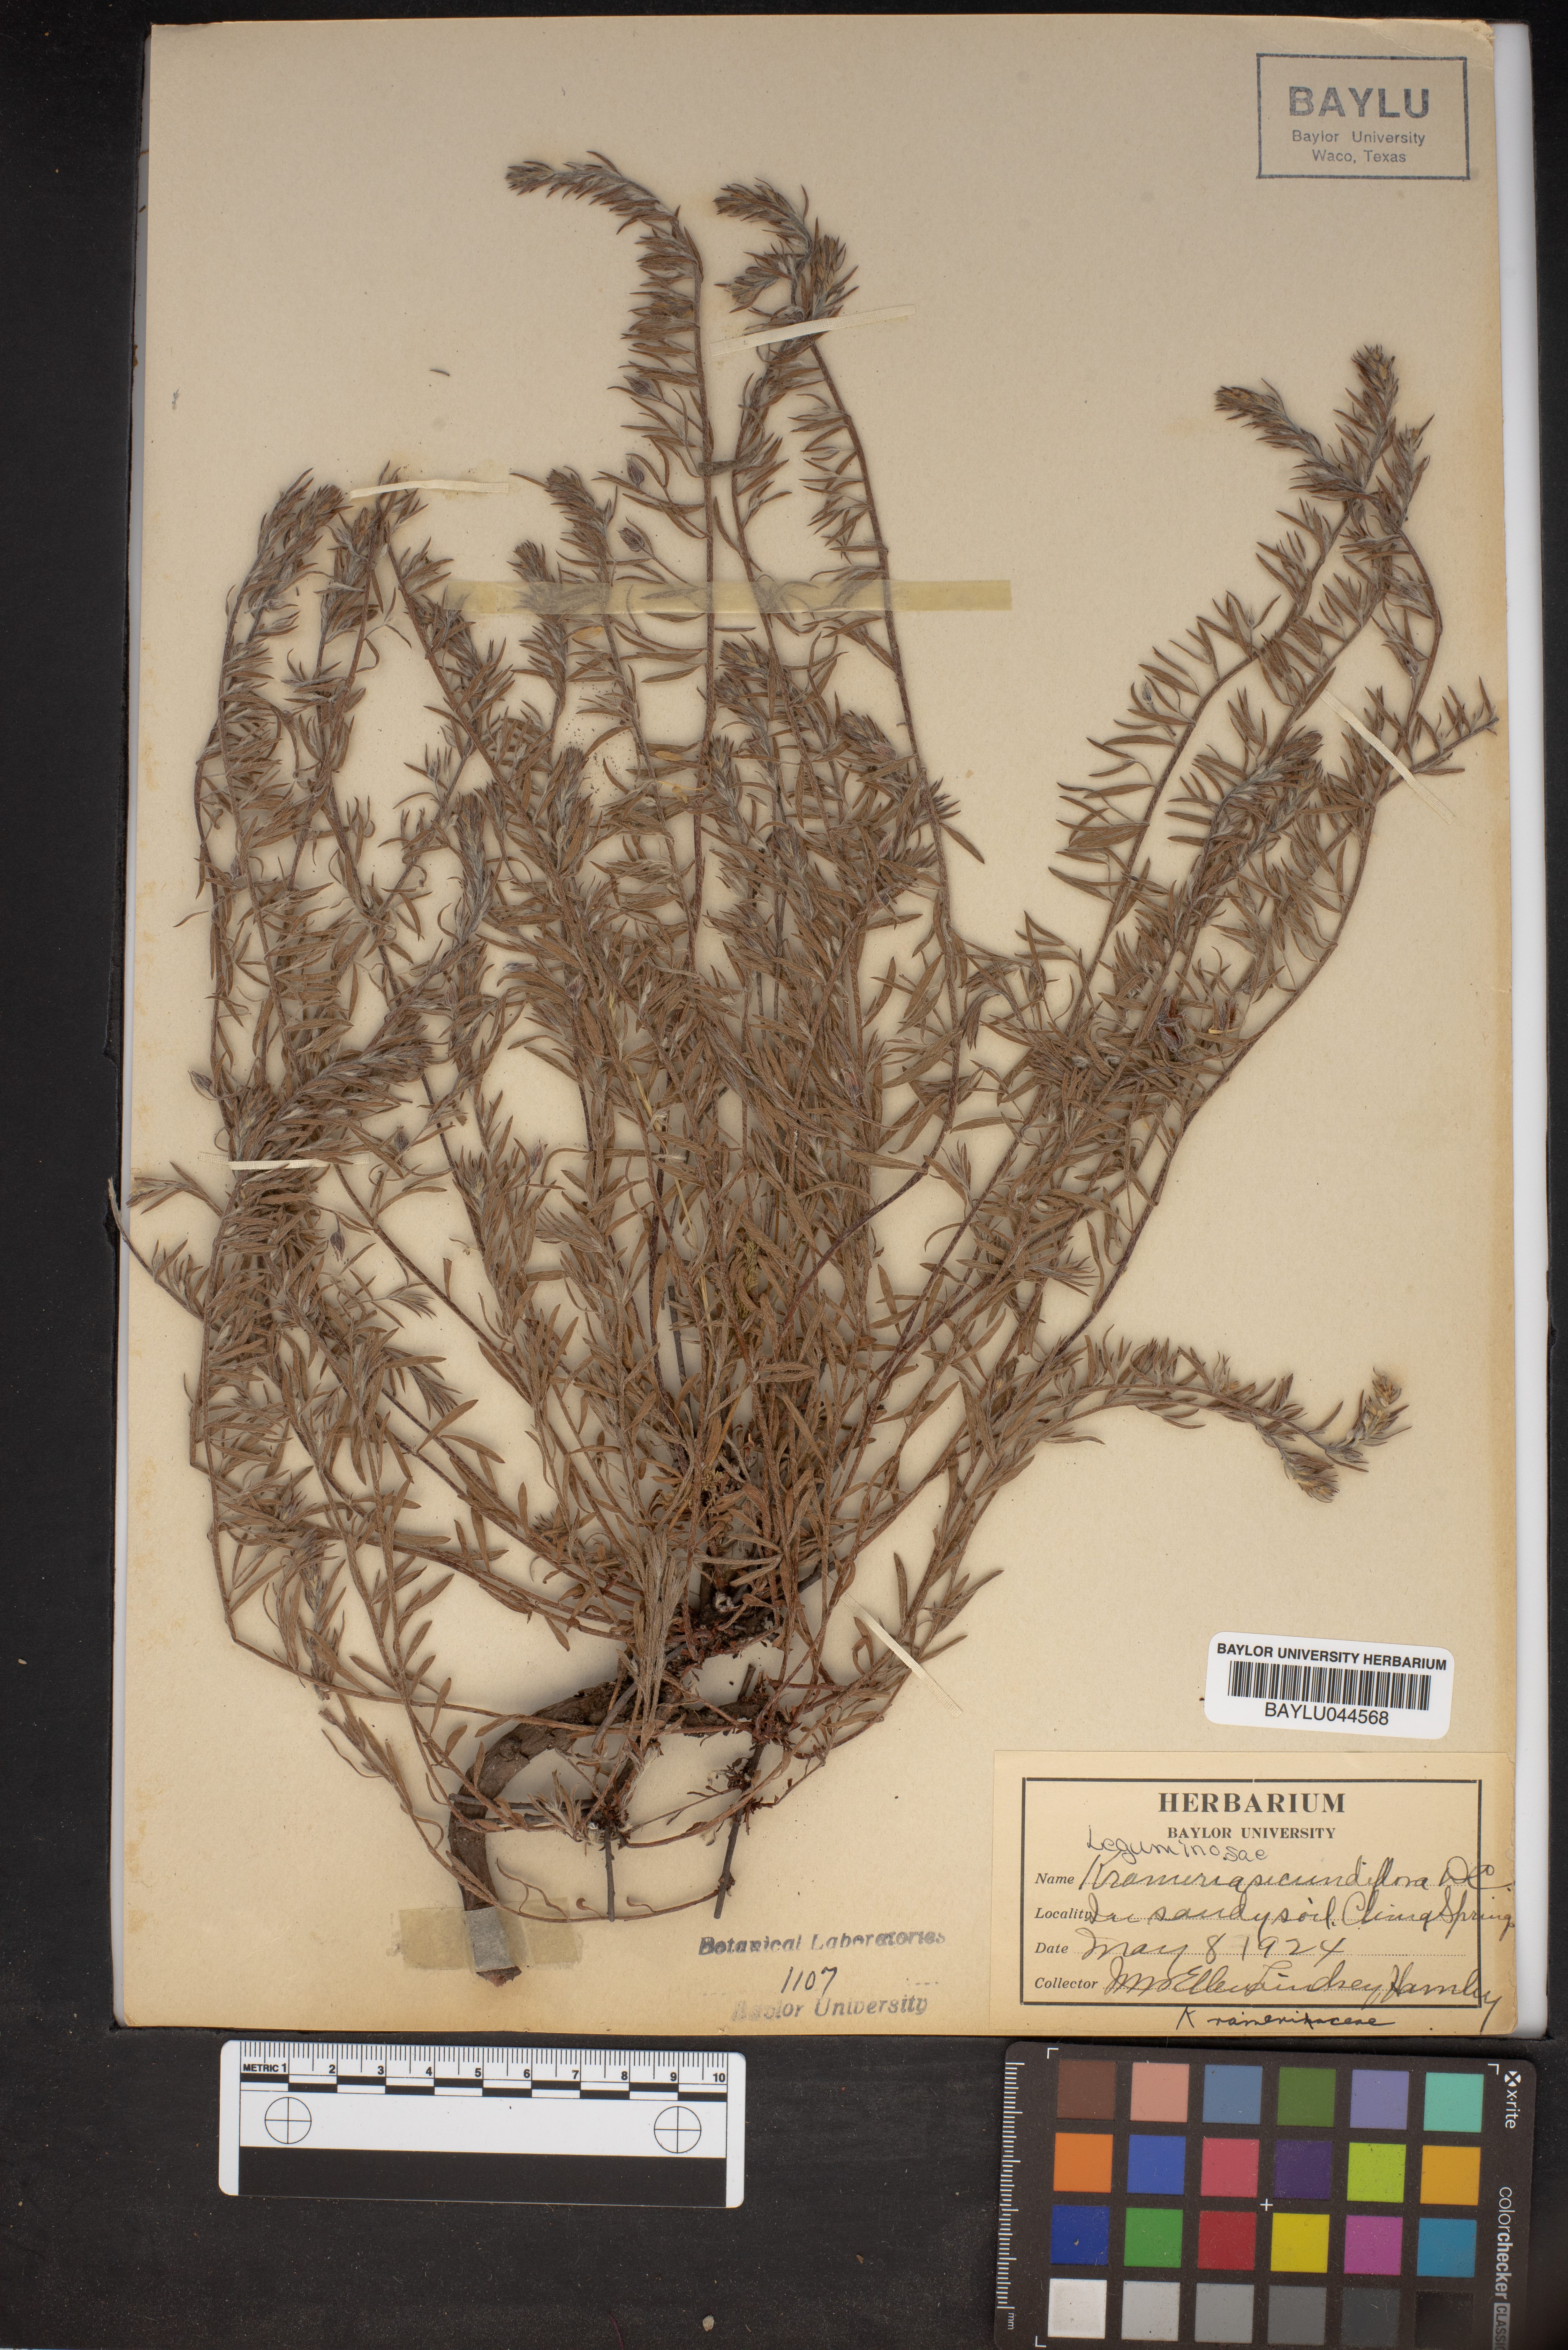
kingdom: Plantae
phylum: Tracheophyta
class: Magnoliopsida
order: Zygophyllales
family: Krameriaceae
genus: Krameria
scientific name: Krameria secundiflora
